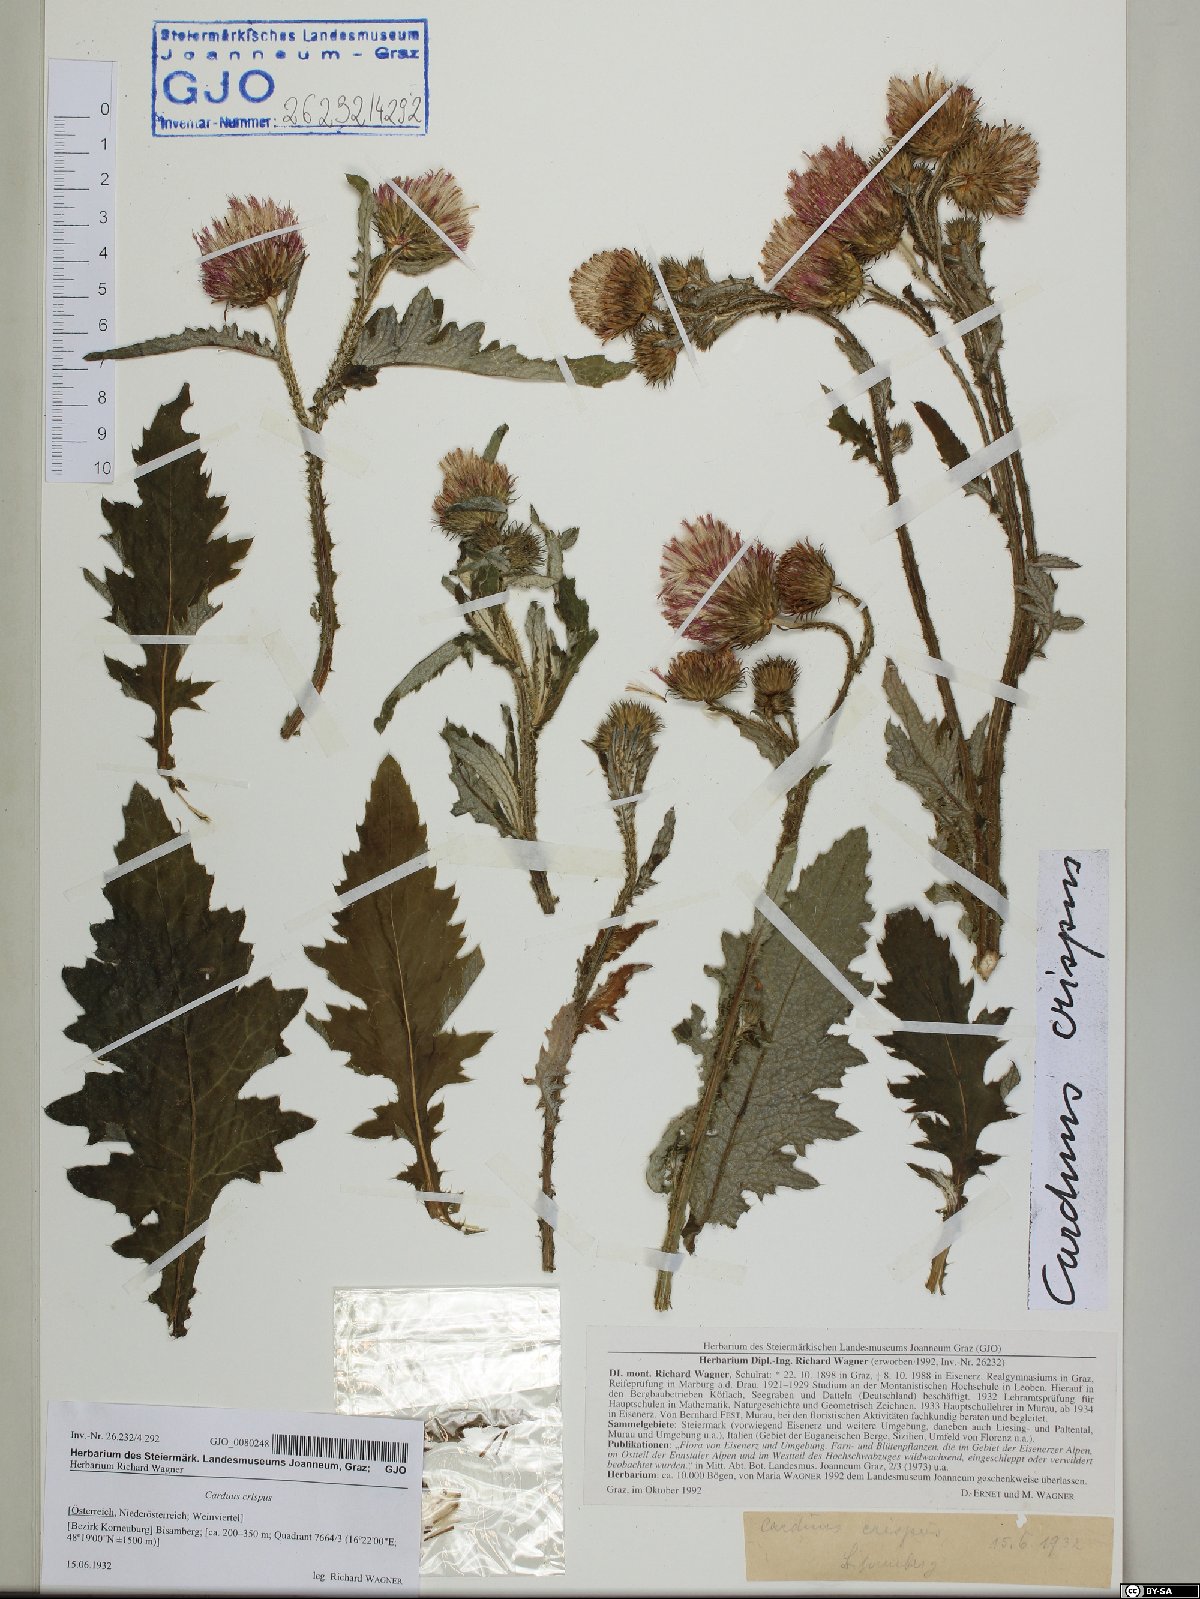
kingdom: Plantae
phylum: Tracheophyta
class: Magnoliopsida
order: Asterales
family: Asteraceae
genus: Carduus
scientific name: Carduus crispus
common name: Welted thistle
